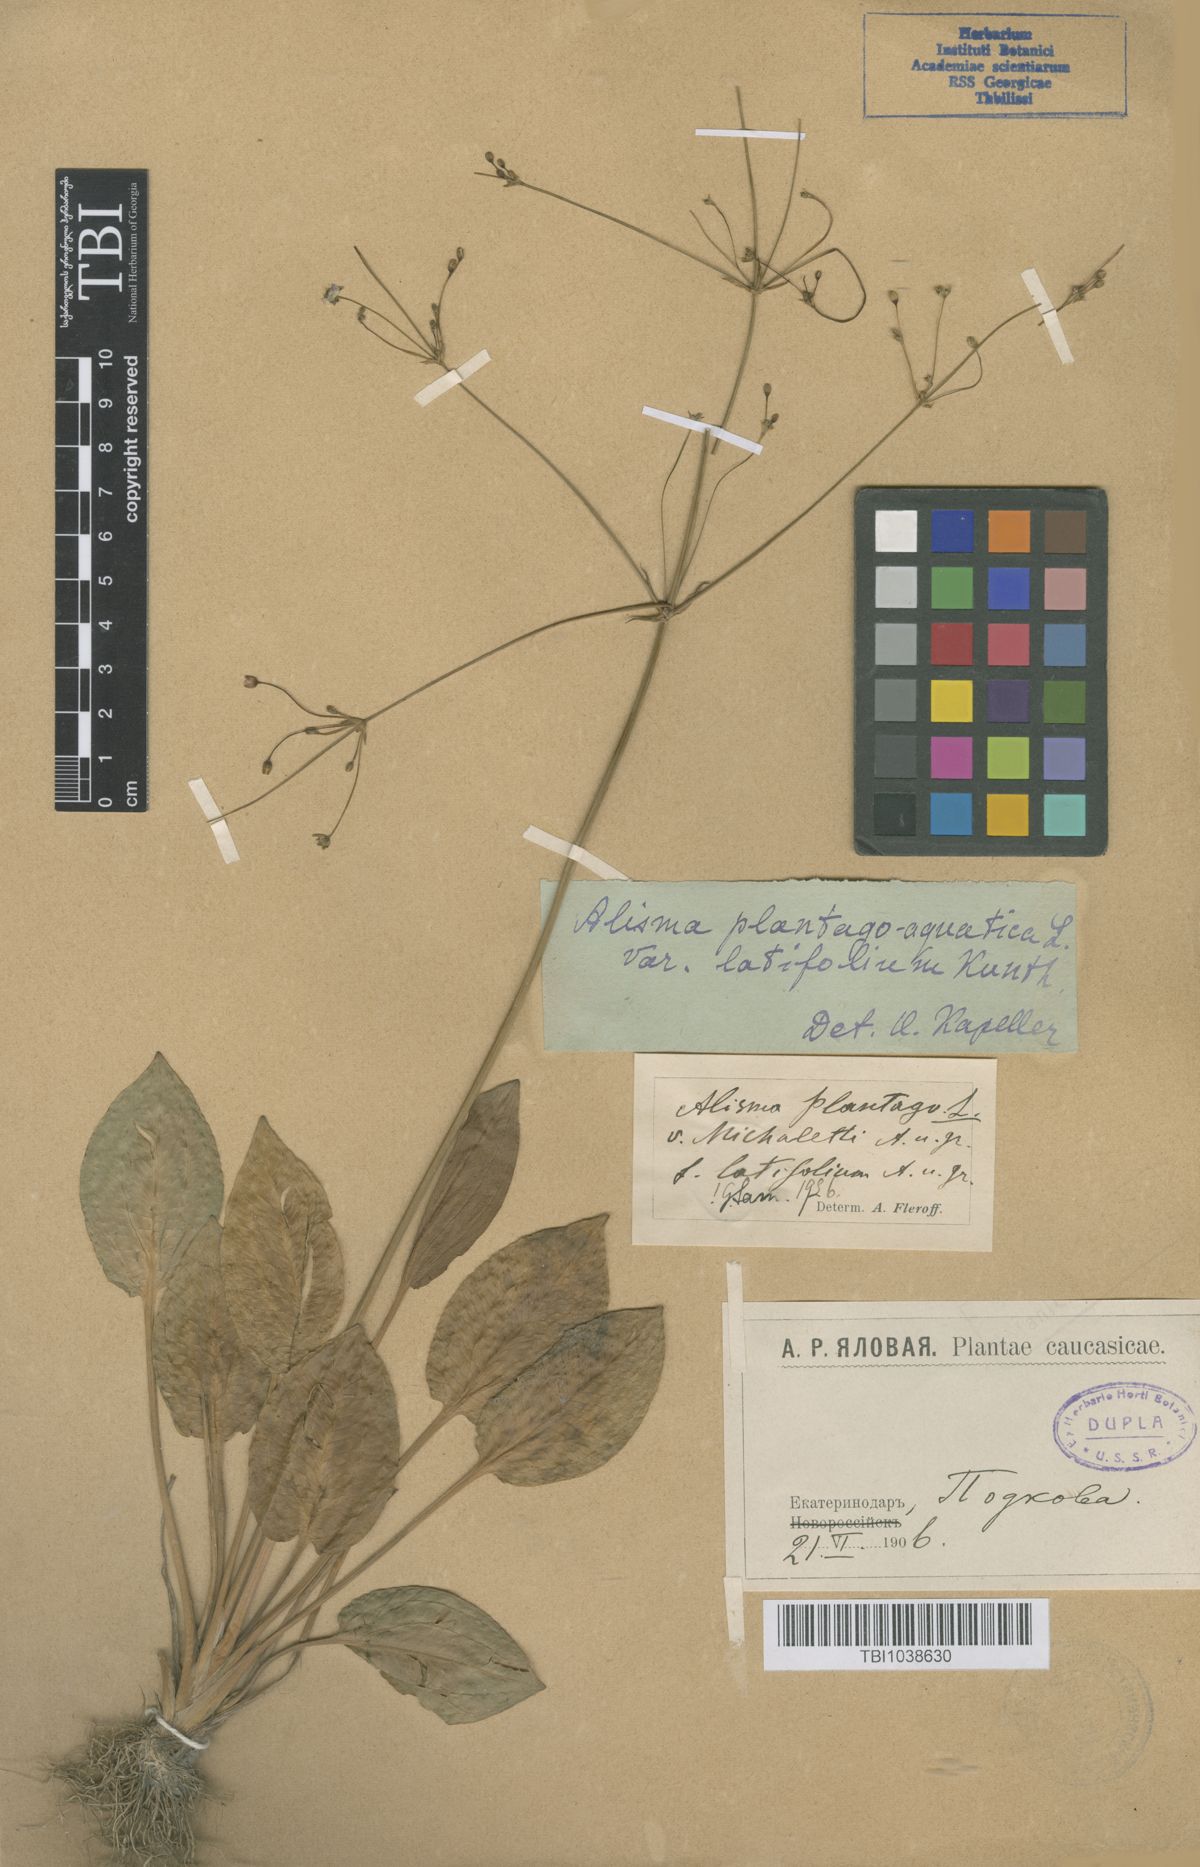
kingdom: Plantae
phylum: Tracheophyta
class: Liliopsida
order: Alismatales
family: Alismataceae
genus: Alisma
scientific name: Alisma plantago-aquatica
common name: Water-plantain
